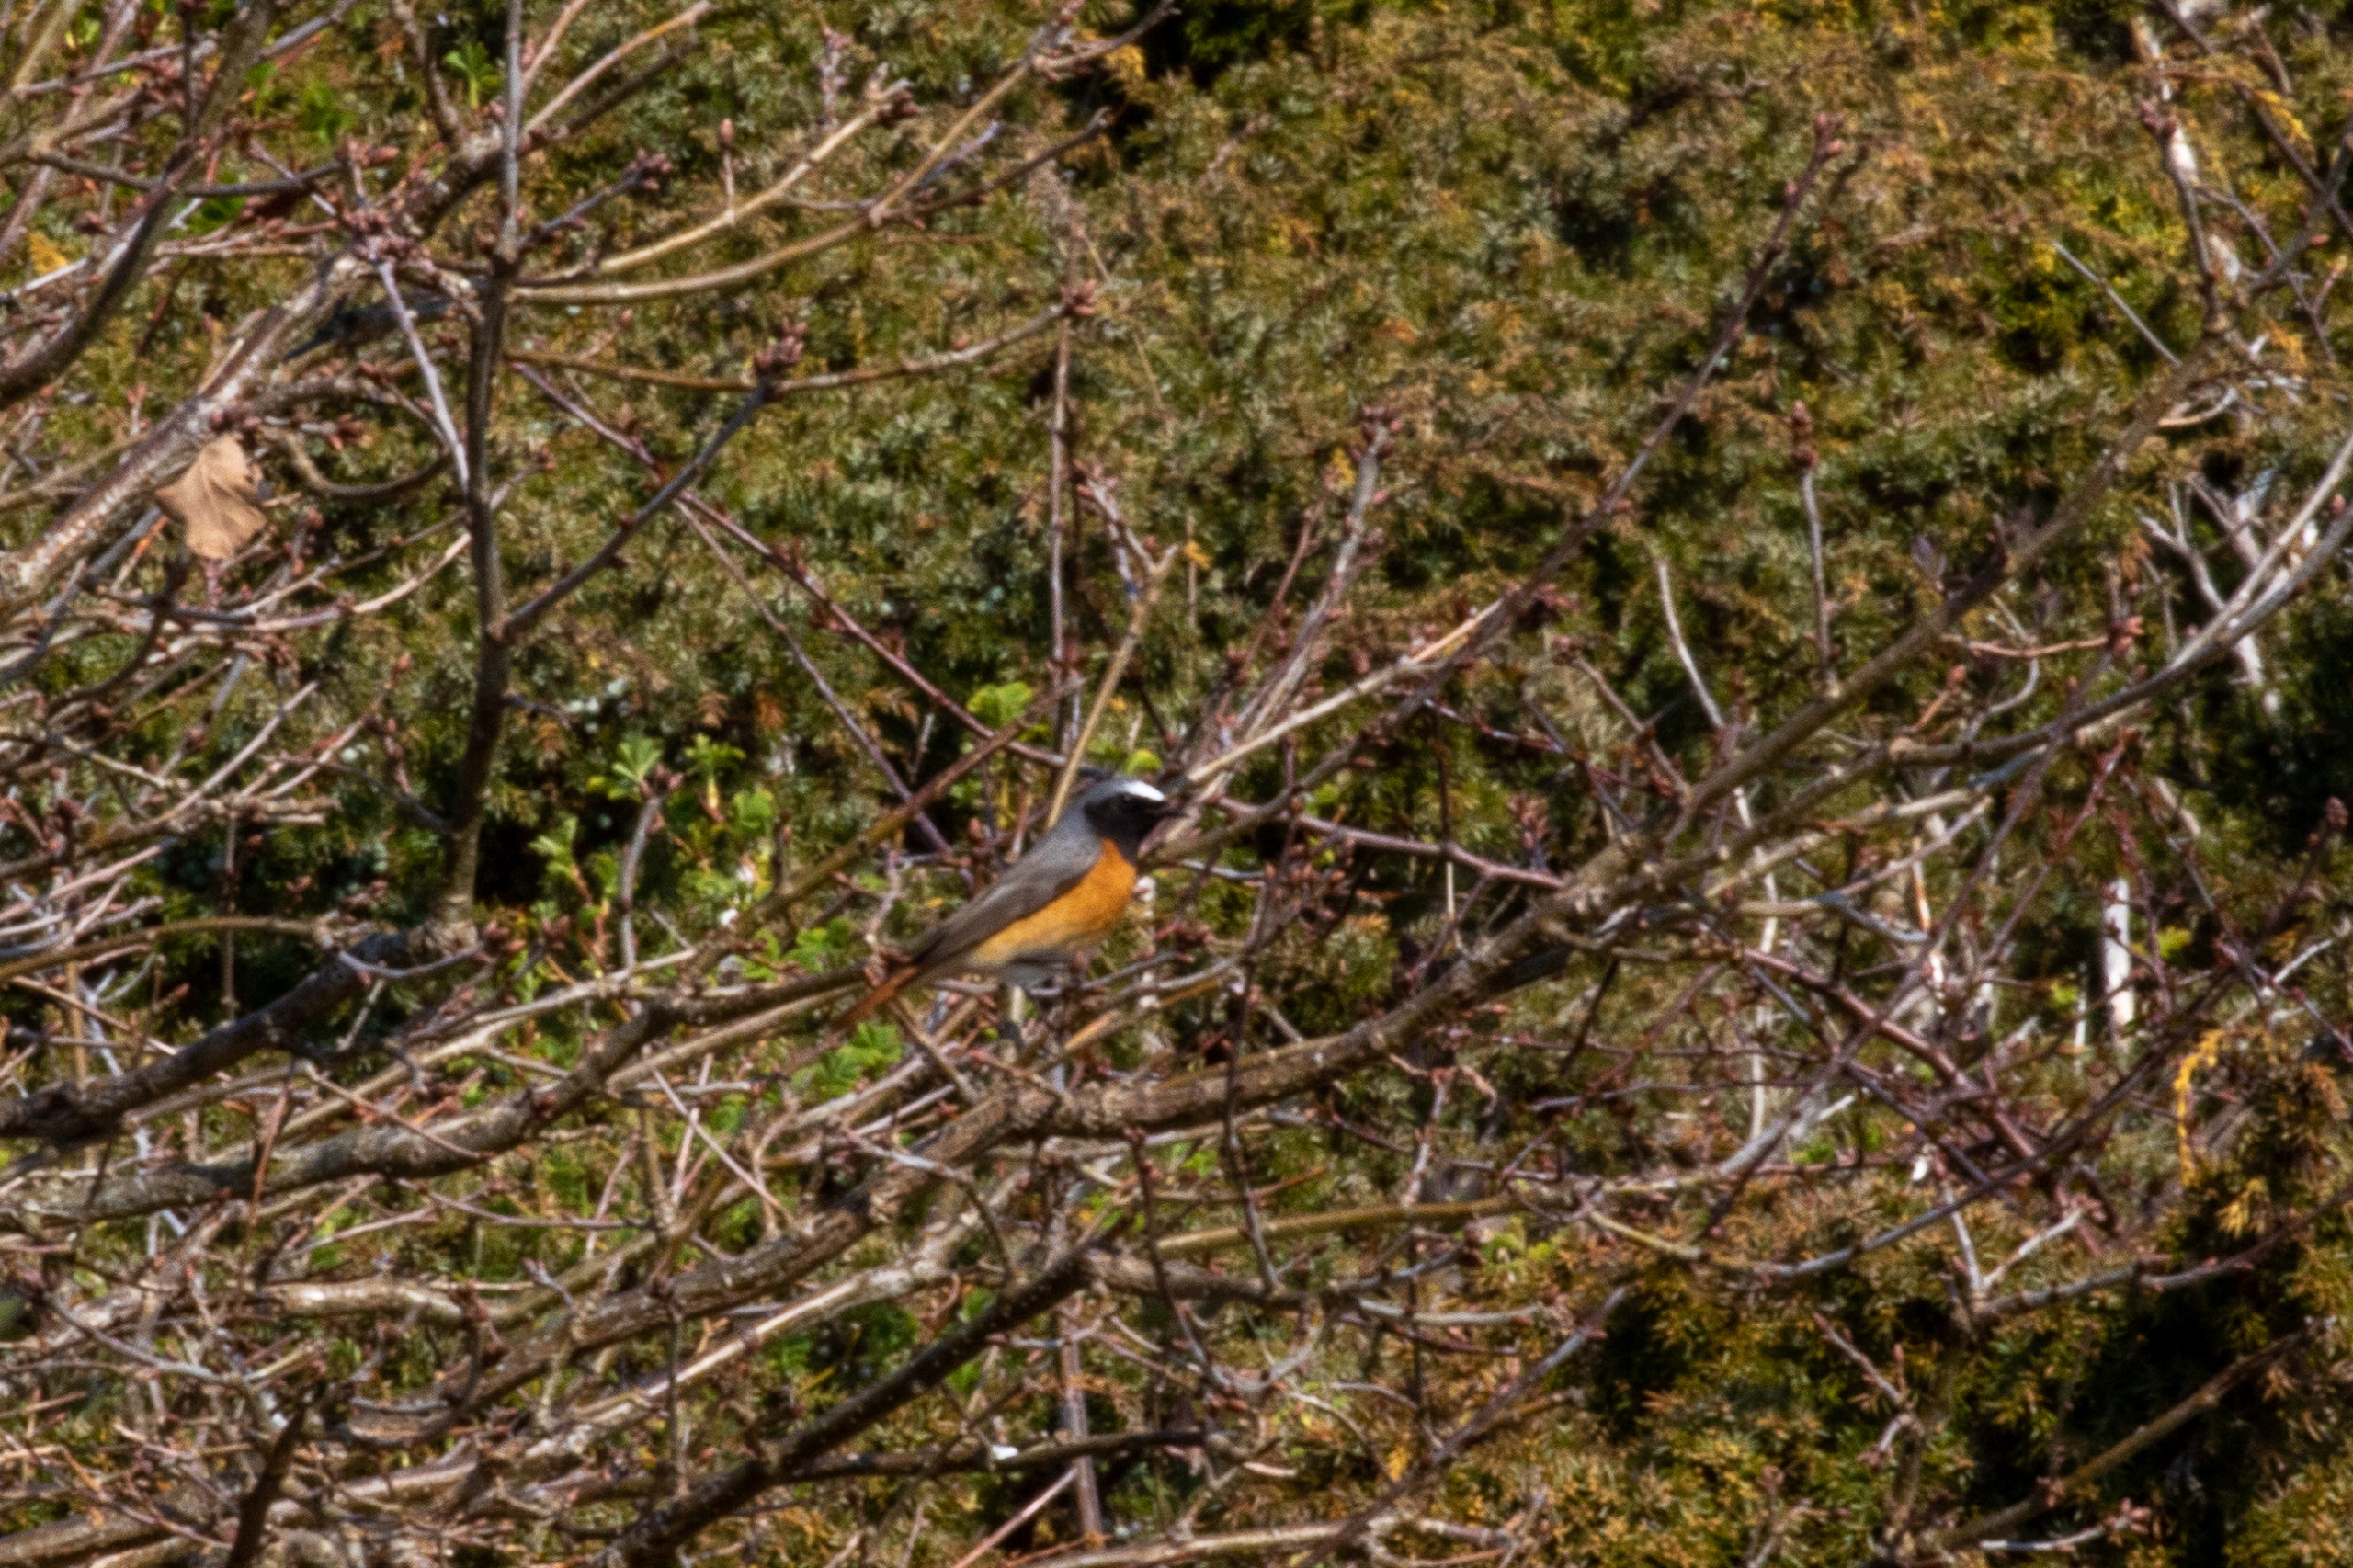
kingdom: Animalia
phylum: Chordata
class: Aves
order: Passeriformes
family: Muscicapidae
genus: Phoenicurus
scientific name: Phoenicurus phoenicurus
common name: Rødstjert
